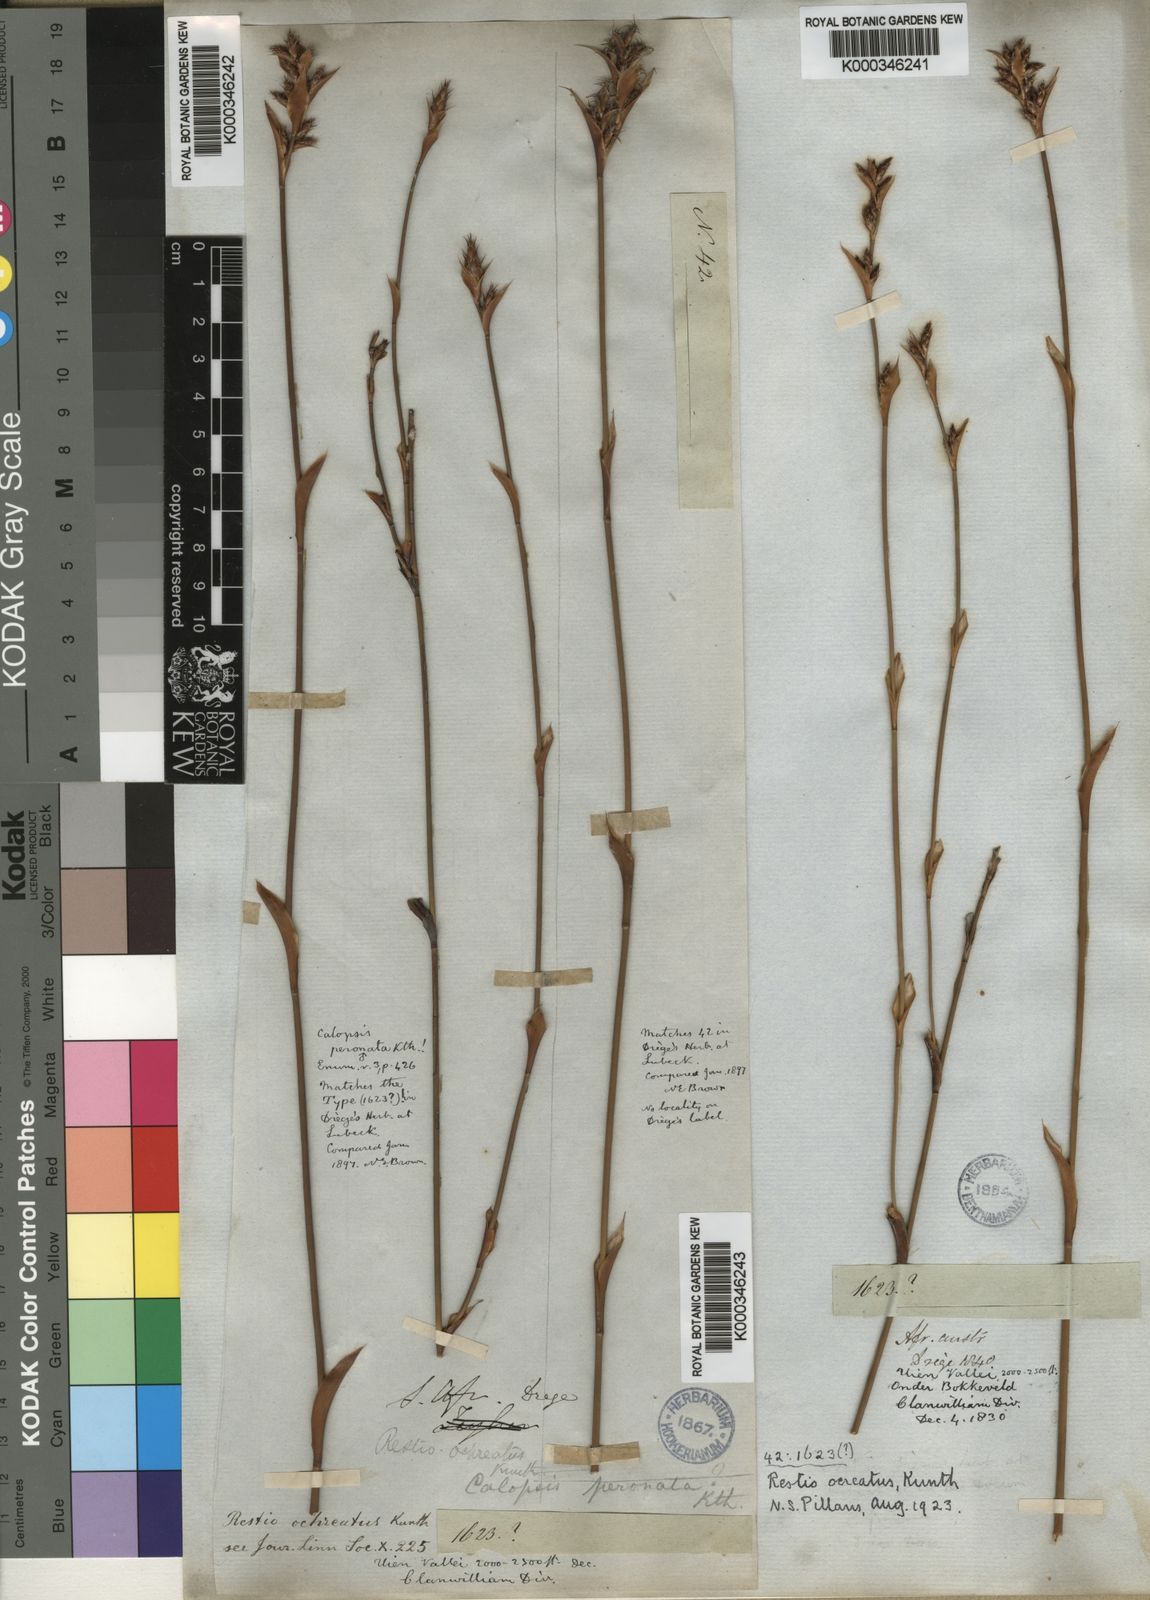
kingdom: Plantae
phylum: Tracheophyta
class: Liliopsida
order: Poales
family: Restionaceae
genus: Restio
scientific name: Restio ocreatus
